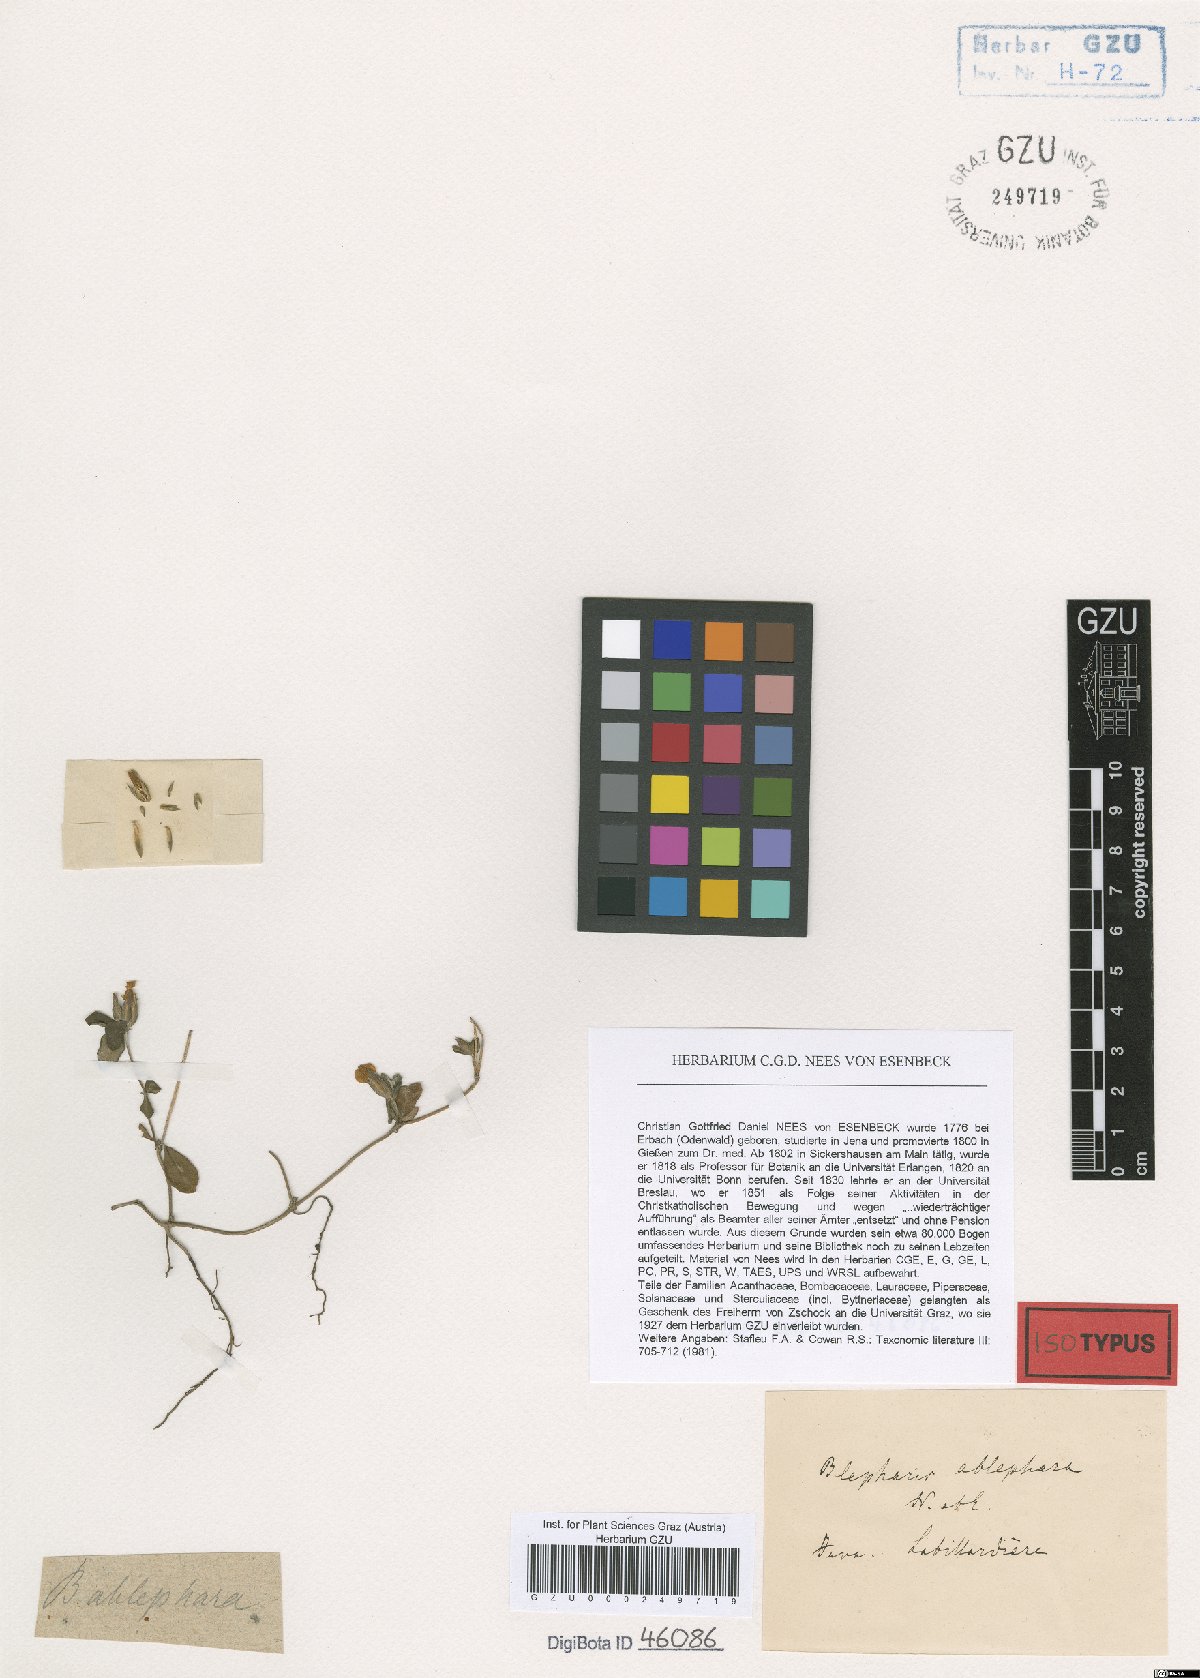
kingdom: Plantae
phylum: Tracheophyta
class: Magnoliopsida
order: Lamiales
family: Acanthaceae
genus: Blepharis
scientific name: Blepharis exigua
